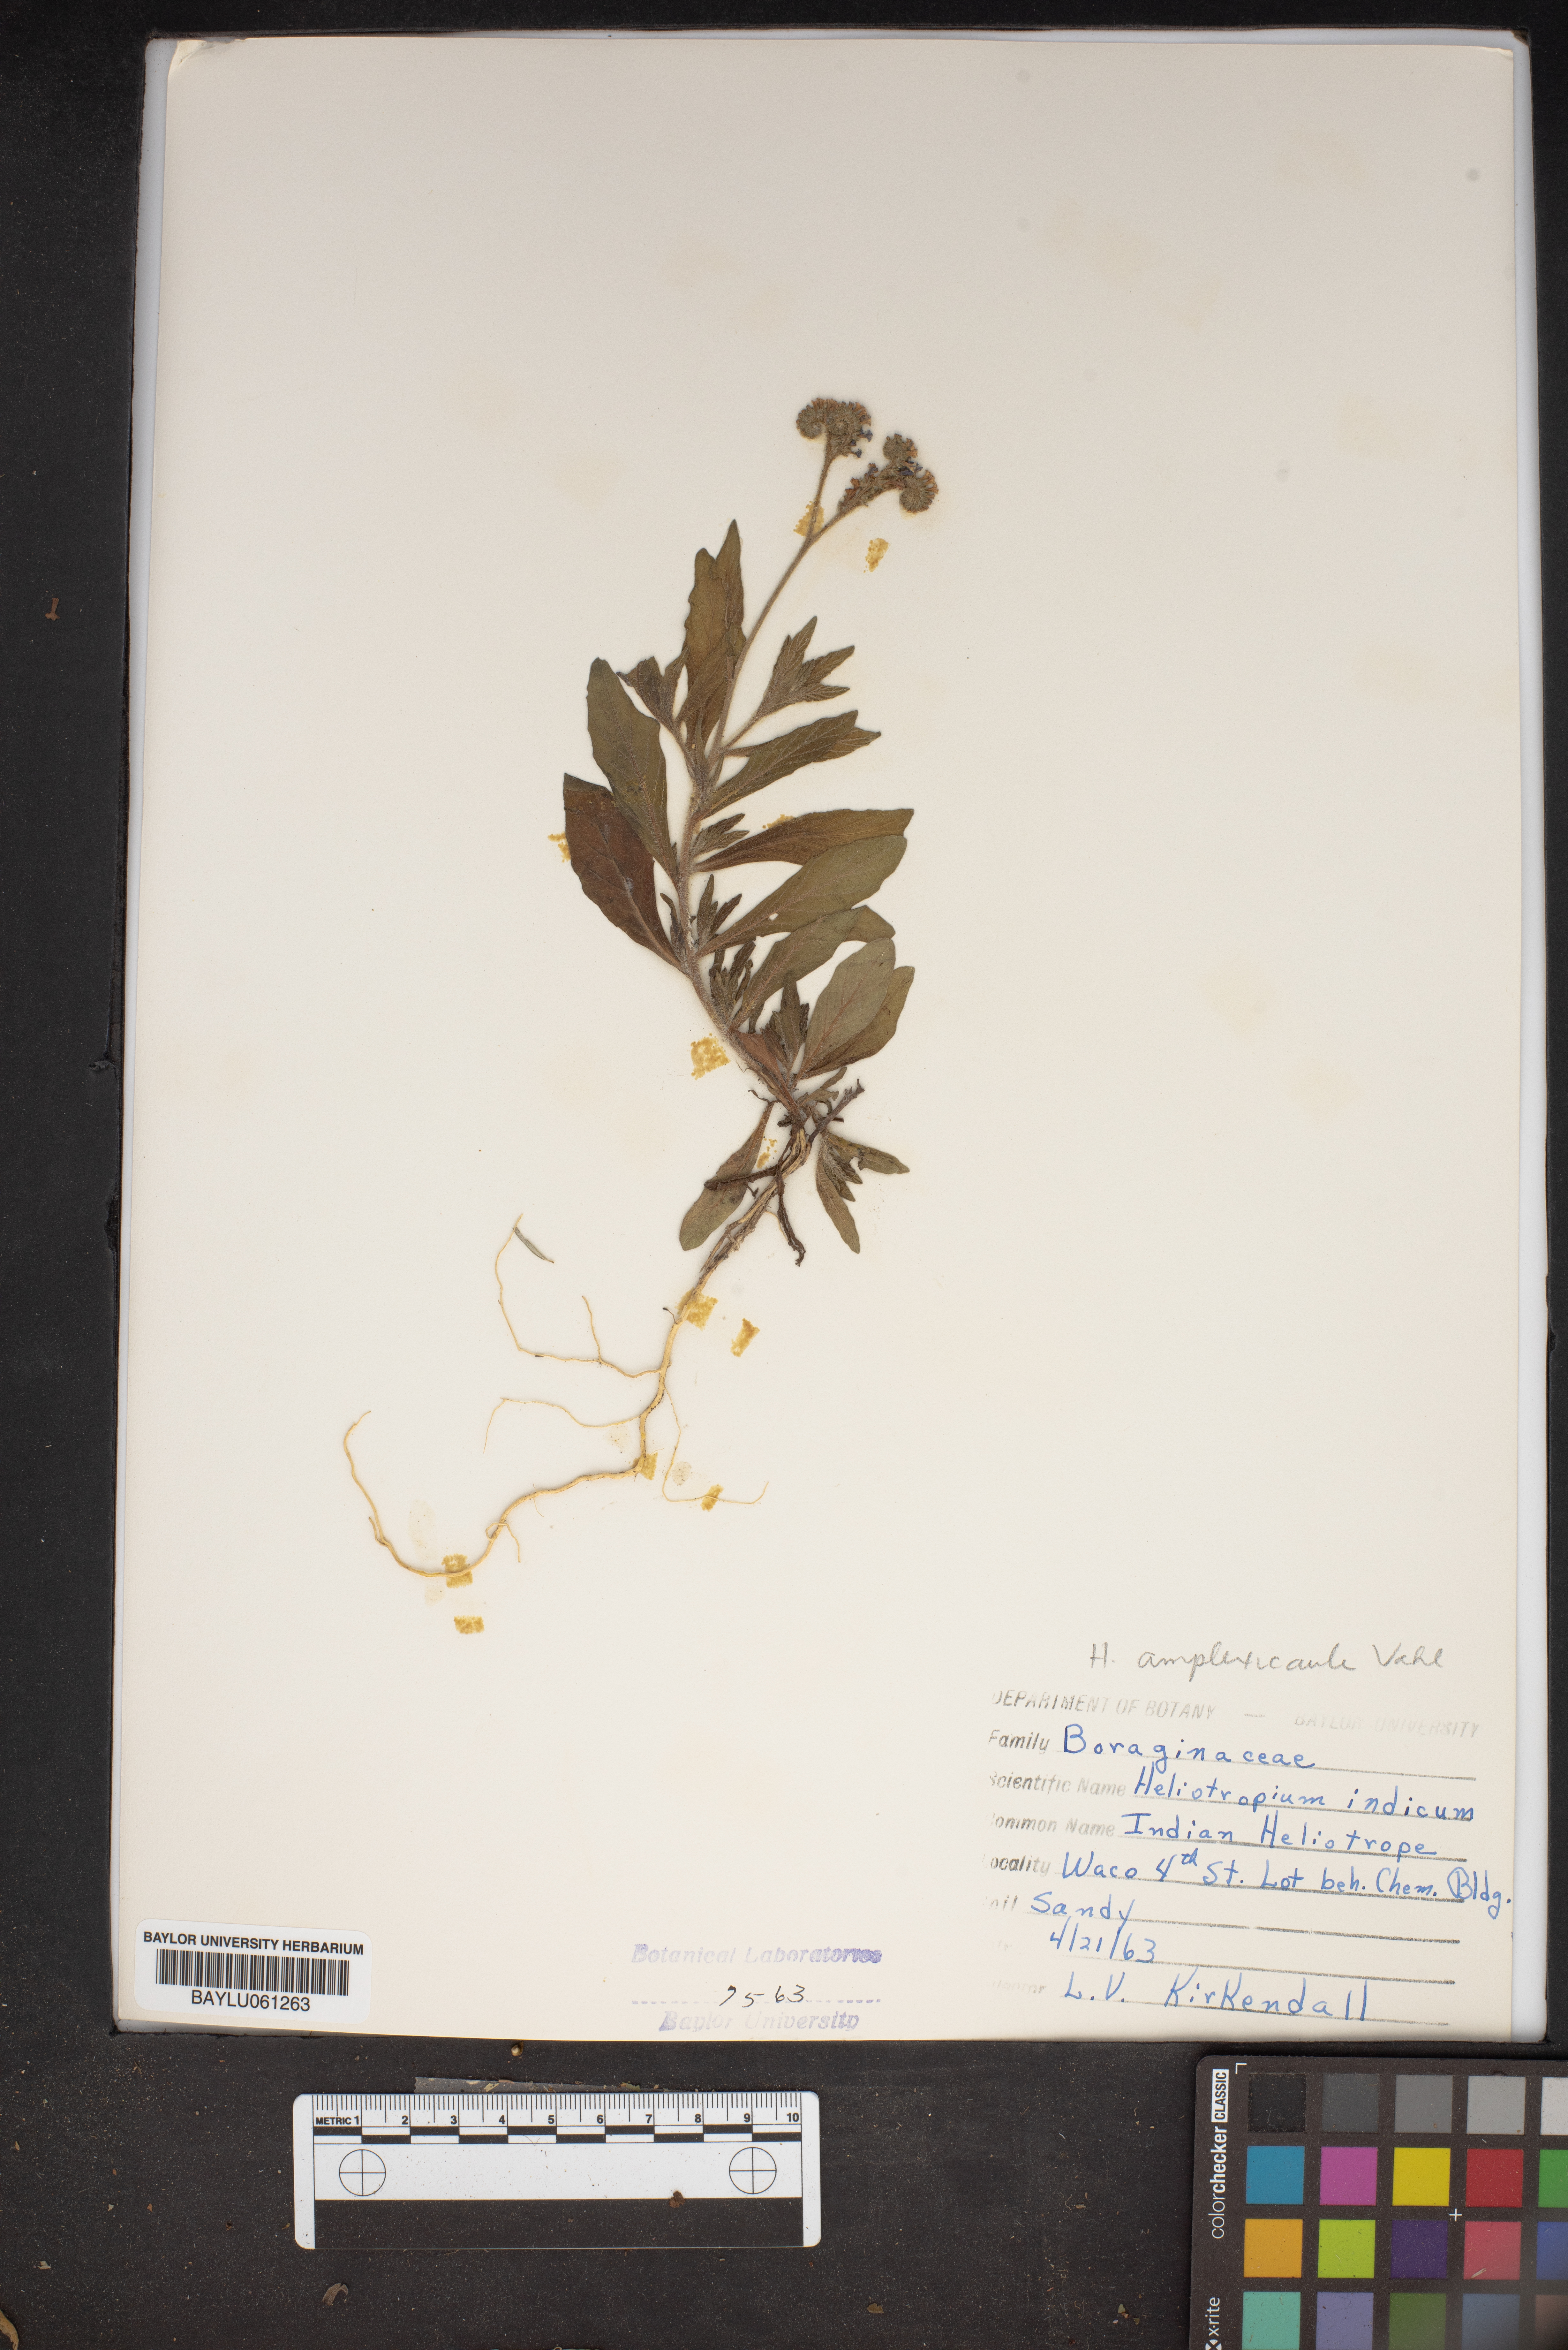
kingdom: Plantae
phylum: Tracheophyta
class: Magnoliopsida
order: Boraginales
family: Heliotropiaceae
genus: Heliotropium
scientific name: Heliotropium indicum
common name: Indian heliotrope
